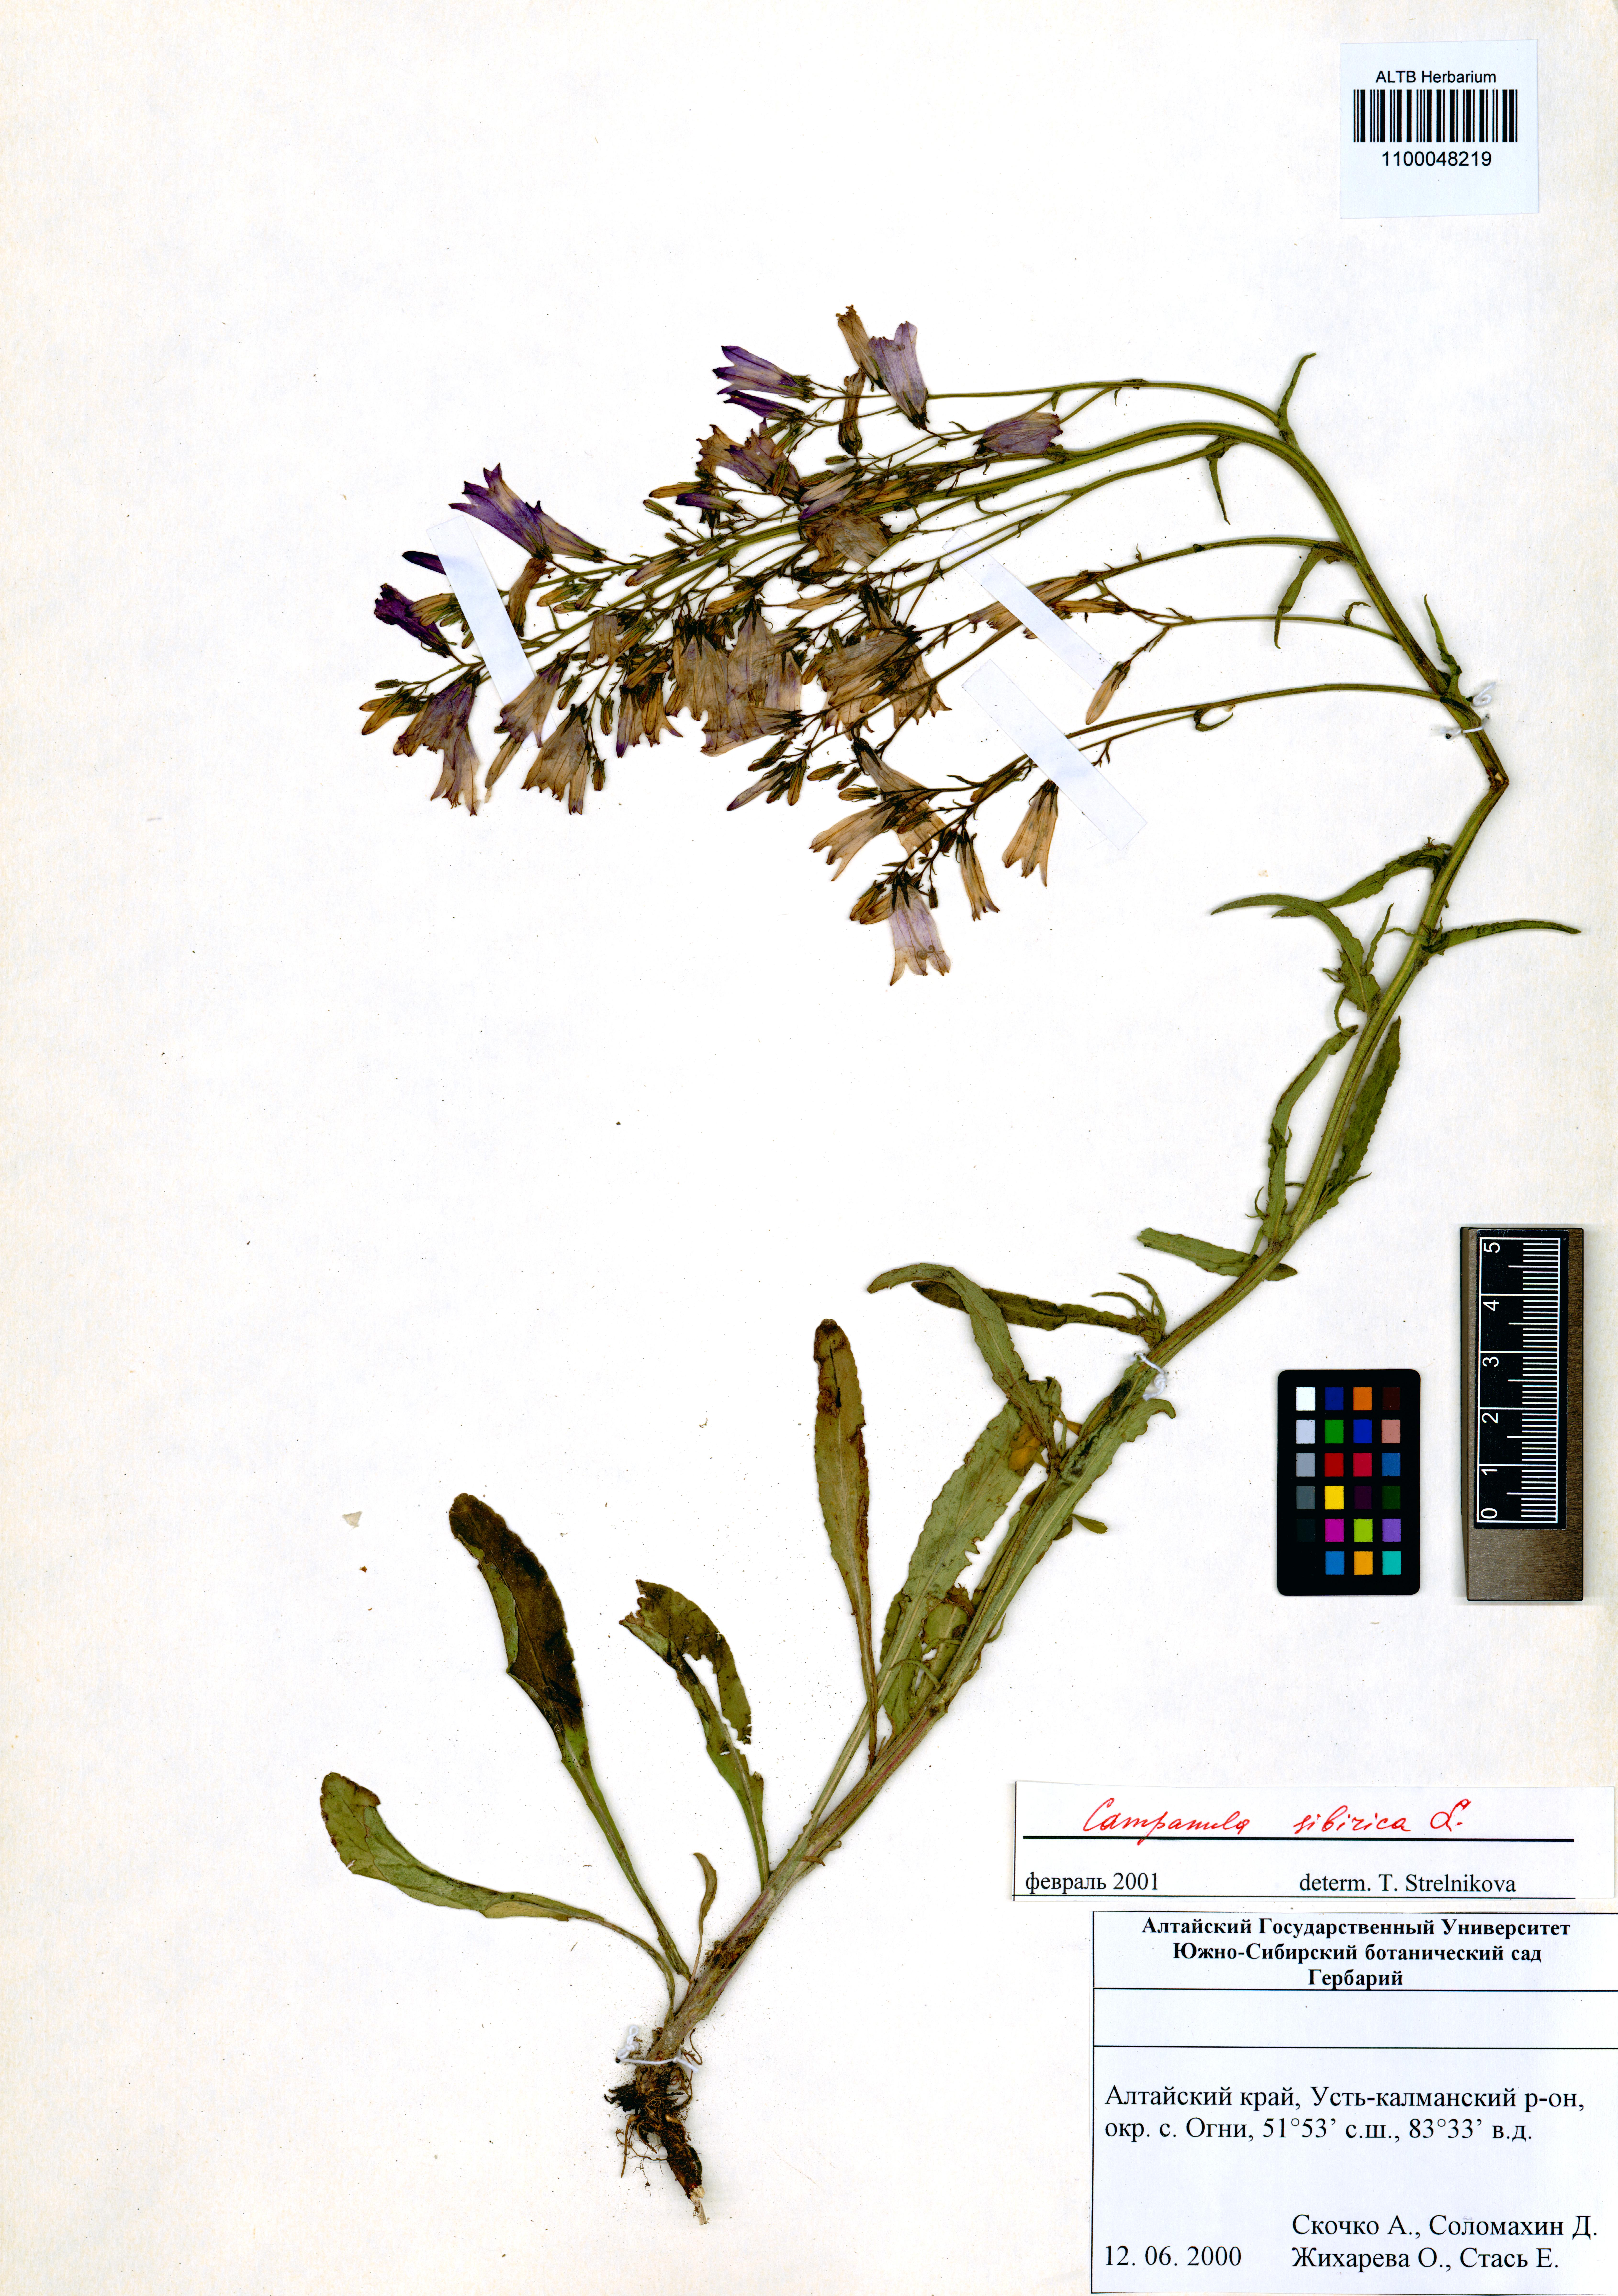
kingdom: Plantae
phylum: Tracheophyta
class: Magnoliopsida
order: Asterales
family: Campanulaceae
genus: Campanula
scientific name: Campanula sibirica
